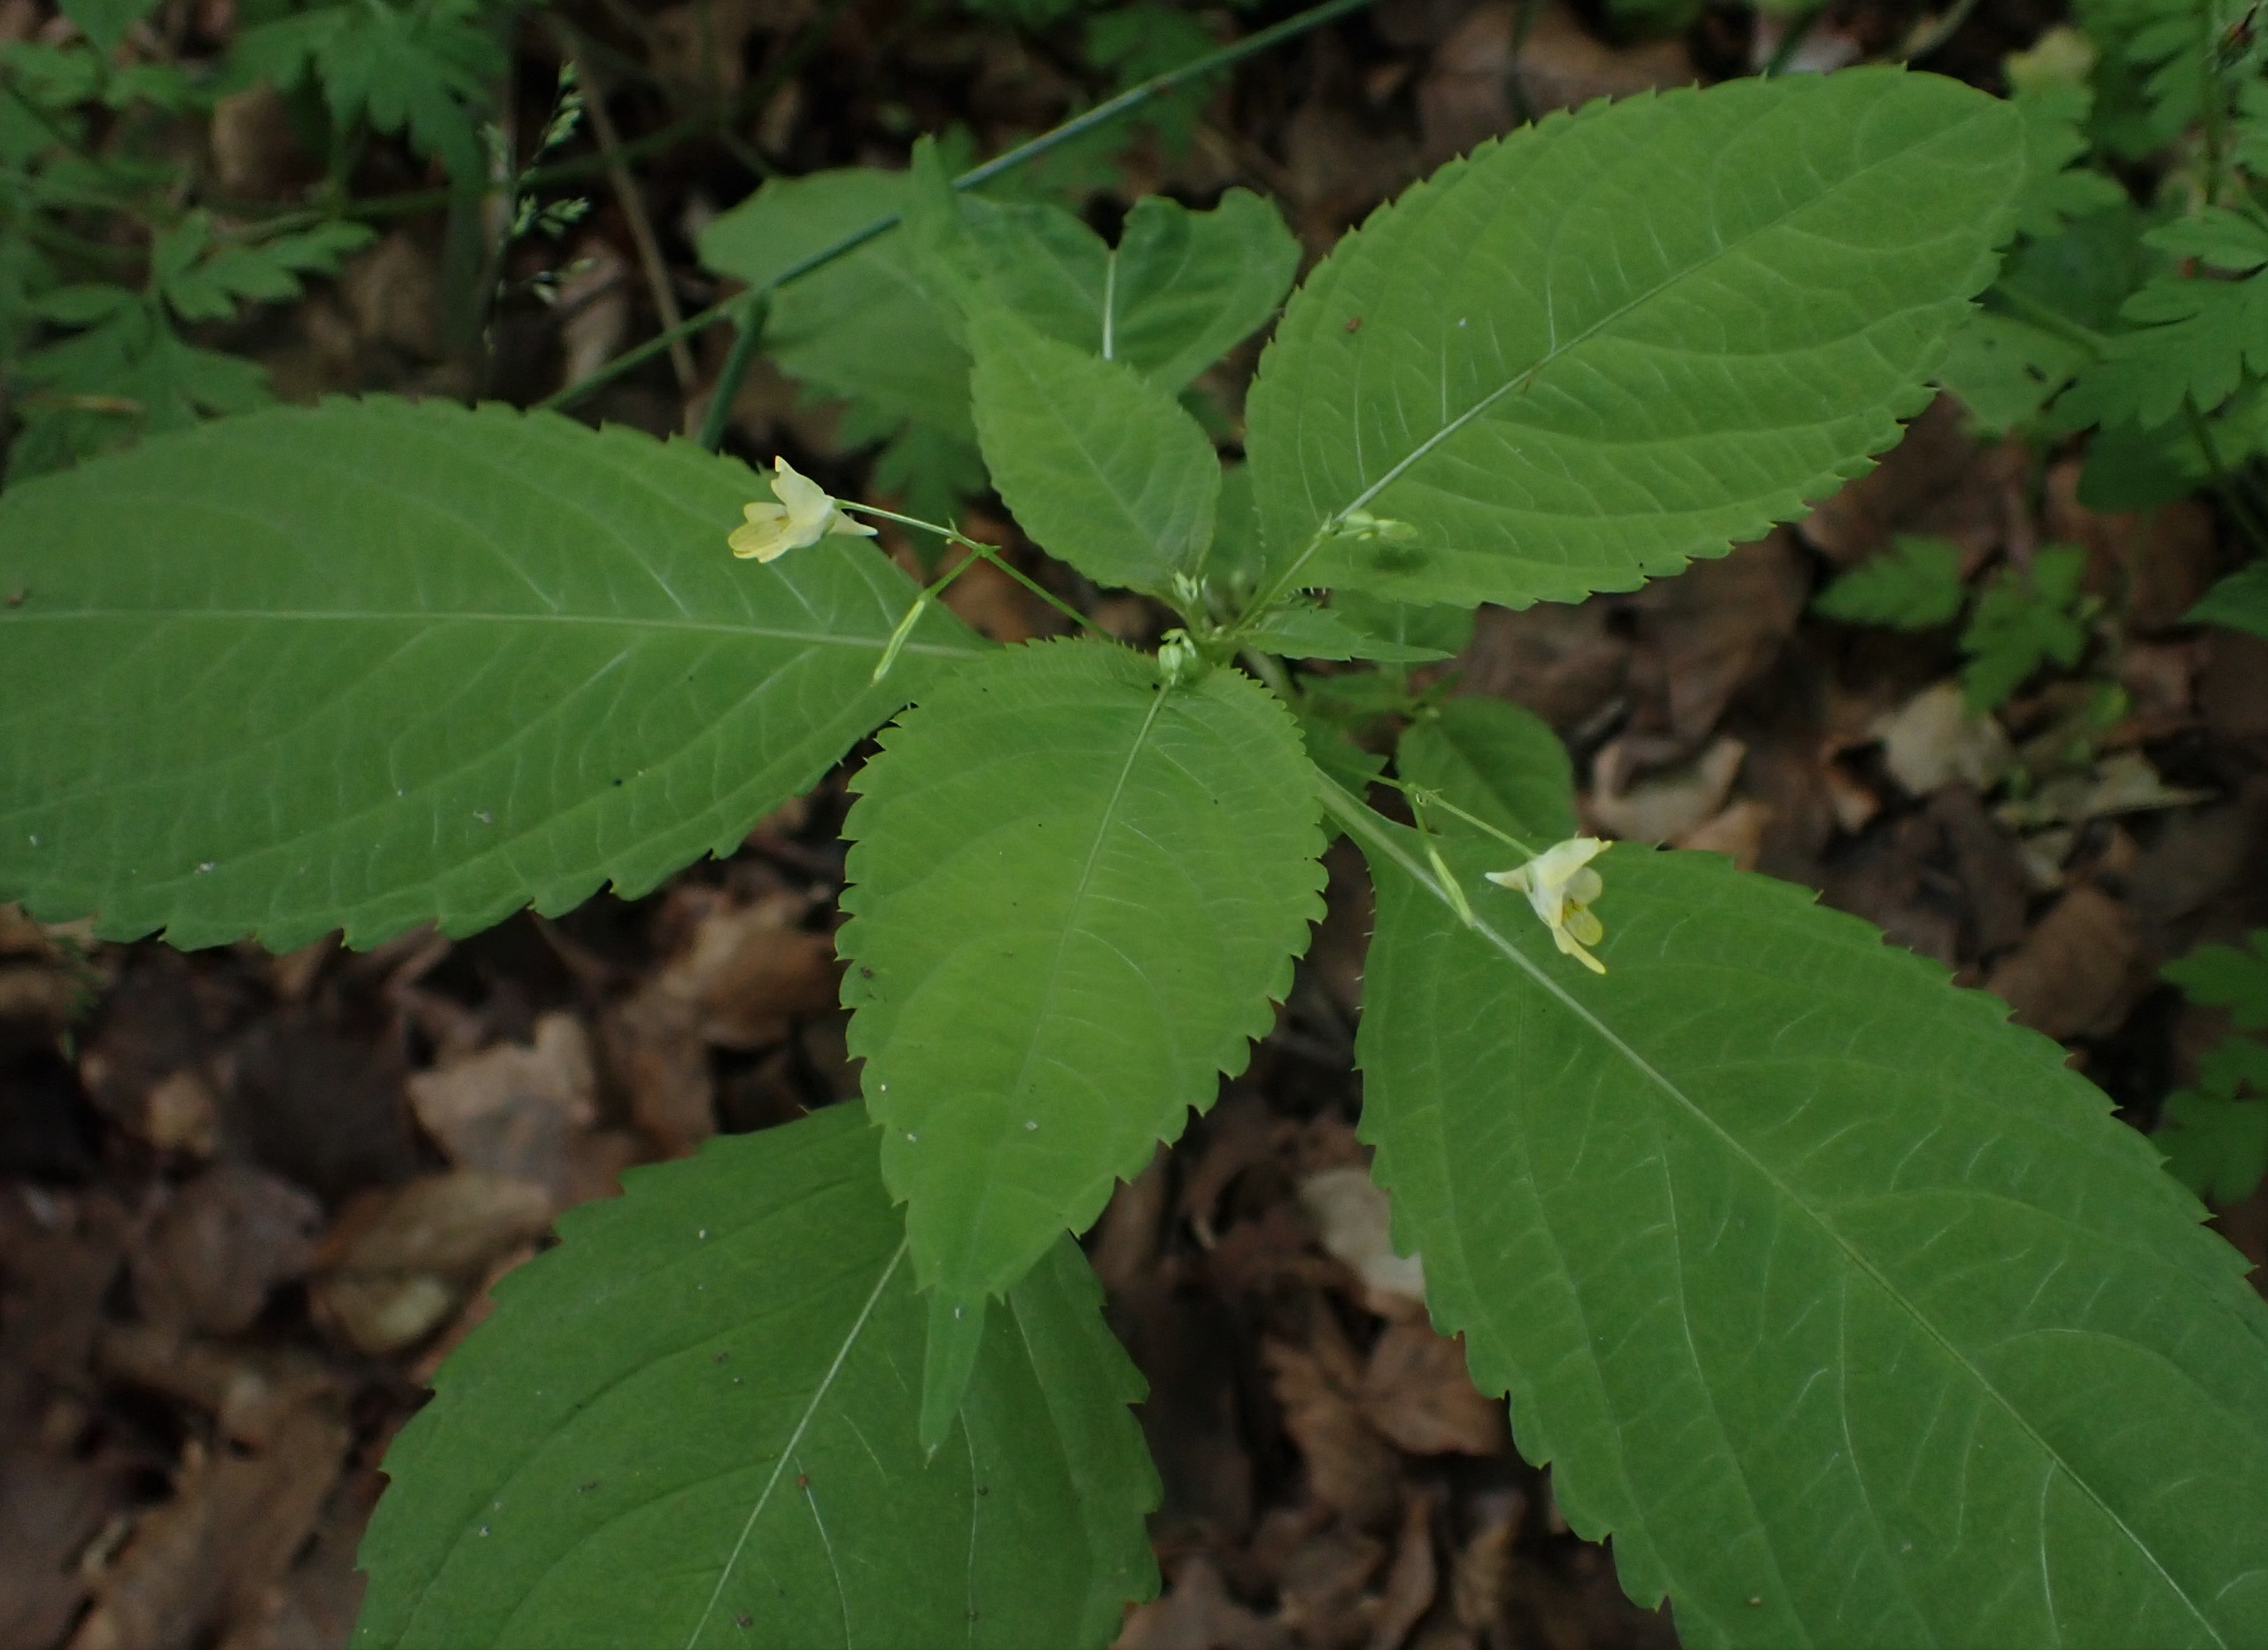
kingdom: Plantae
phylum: Tracheophyta
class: Magnoliopsida
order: Ericales
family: Balsaminaceae
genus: Impatiens
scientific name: Impatiens parviflora
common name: Småblomstret balsamin
